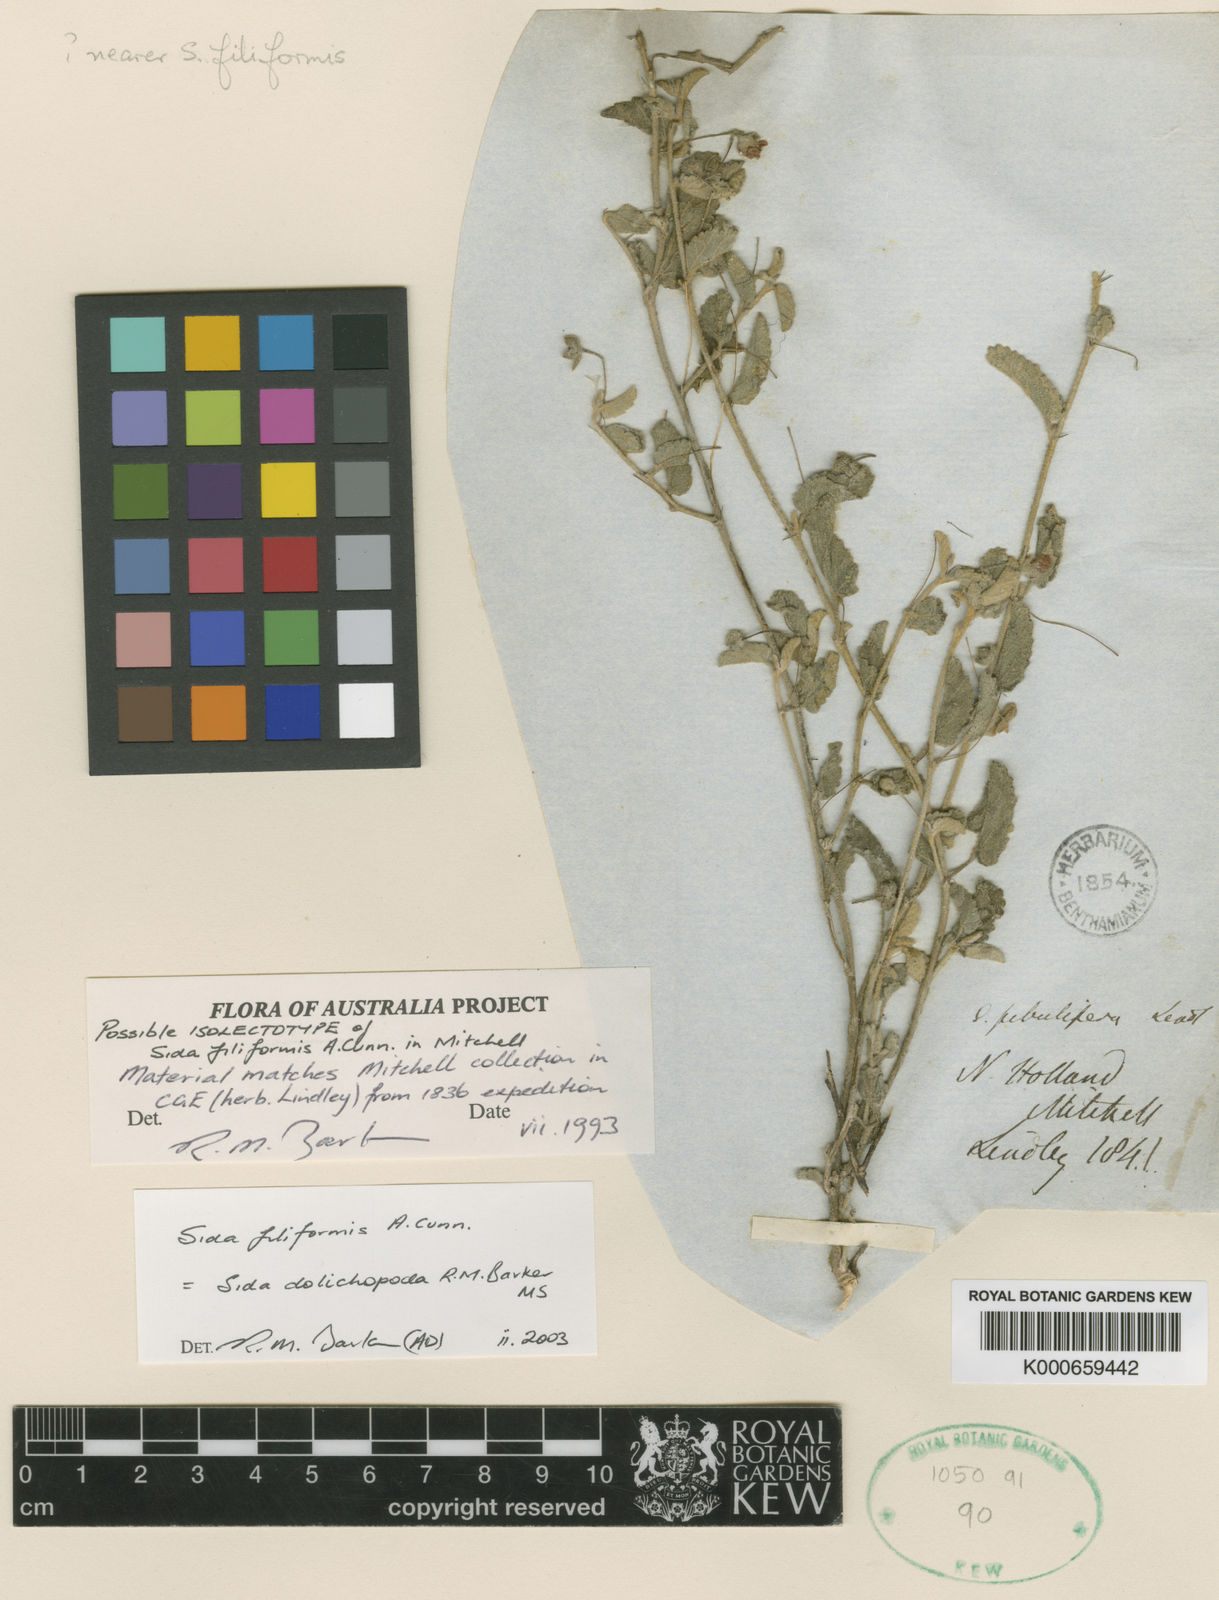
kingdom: Plantae
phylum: Tracheophyta
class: Magnoliopsida
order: Malvales
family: Malvaceae
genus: Sida
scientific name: Sida corrugata
